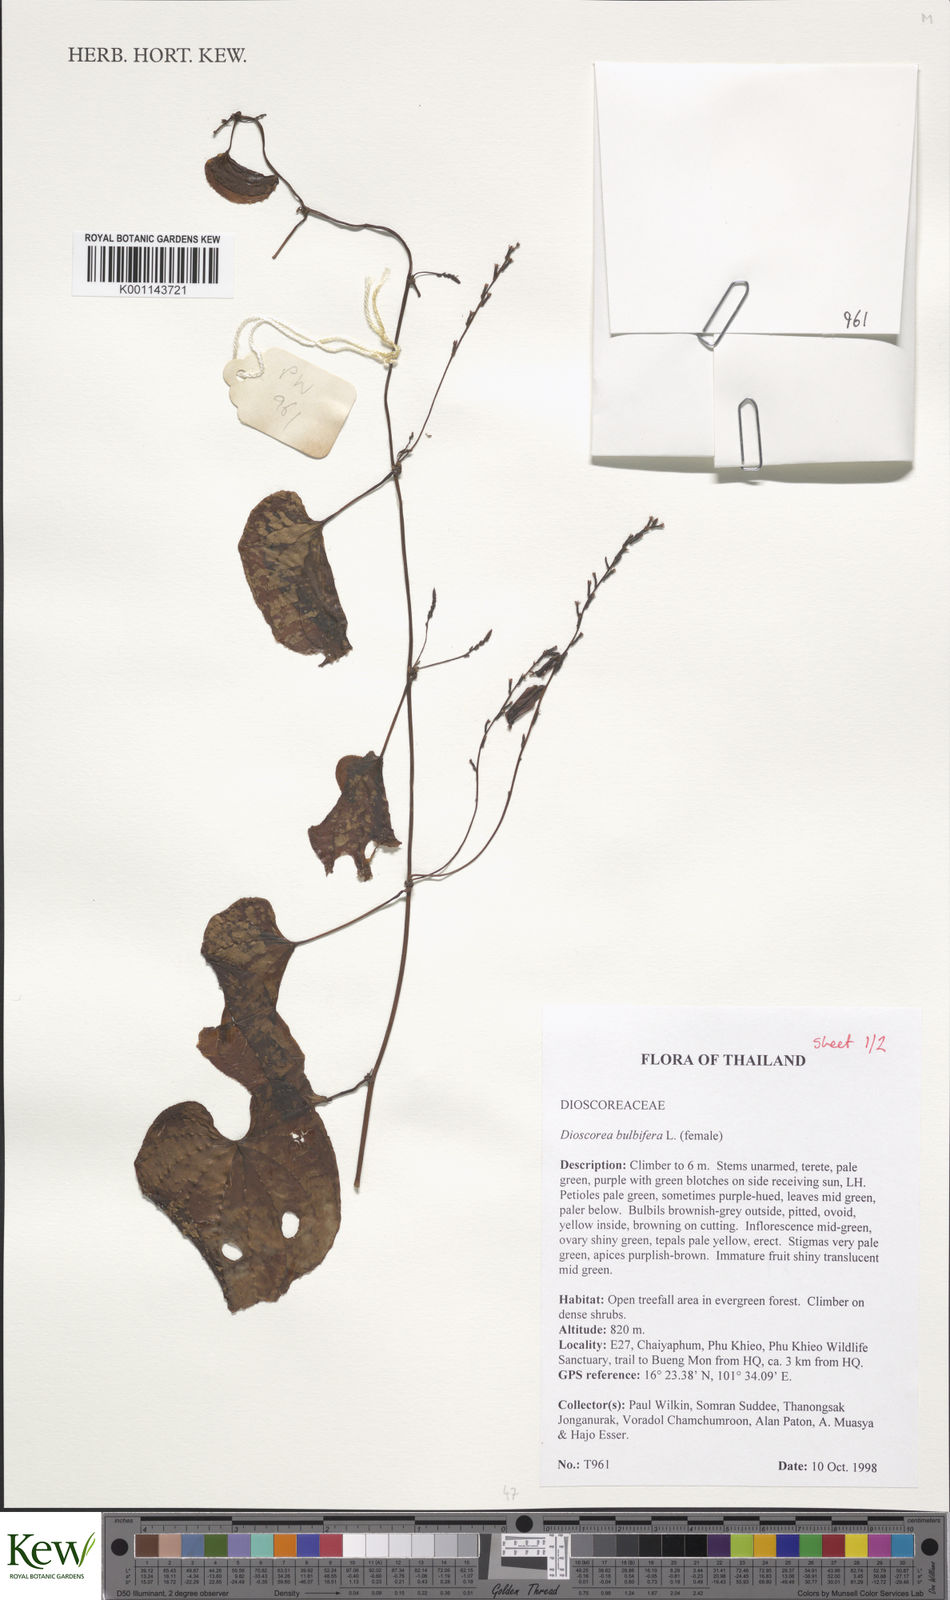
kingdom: Plantae
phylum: Tracheophyta
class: Liliopsida
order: Dioscoreales
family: Dioscoreaceae
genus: Dioscorea
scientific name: Dioscorea bulbifera
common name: Air yam
